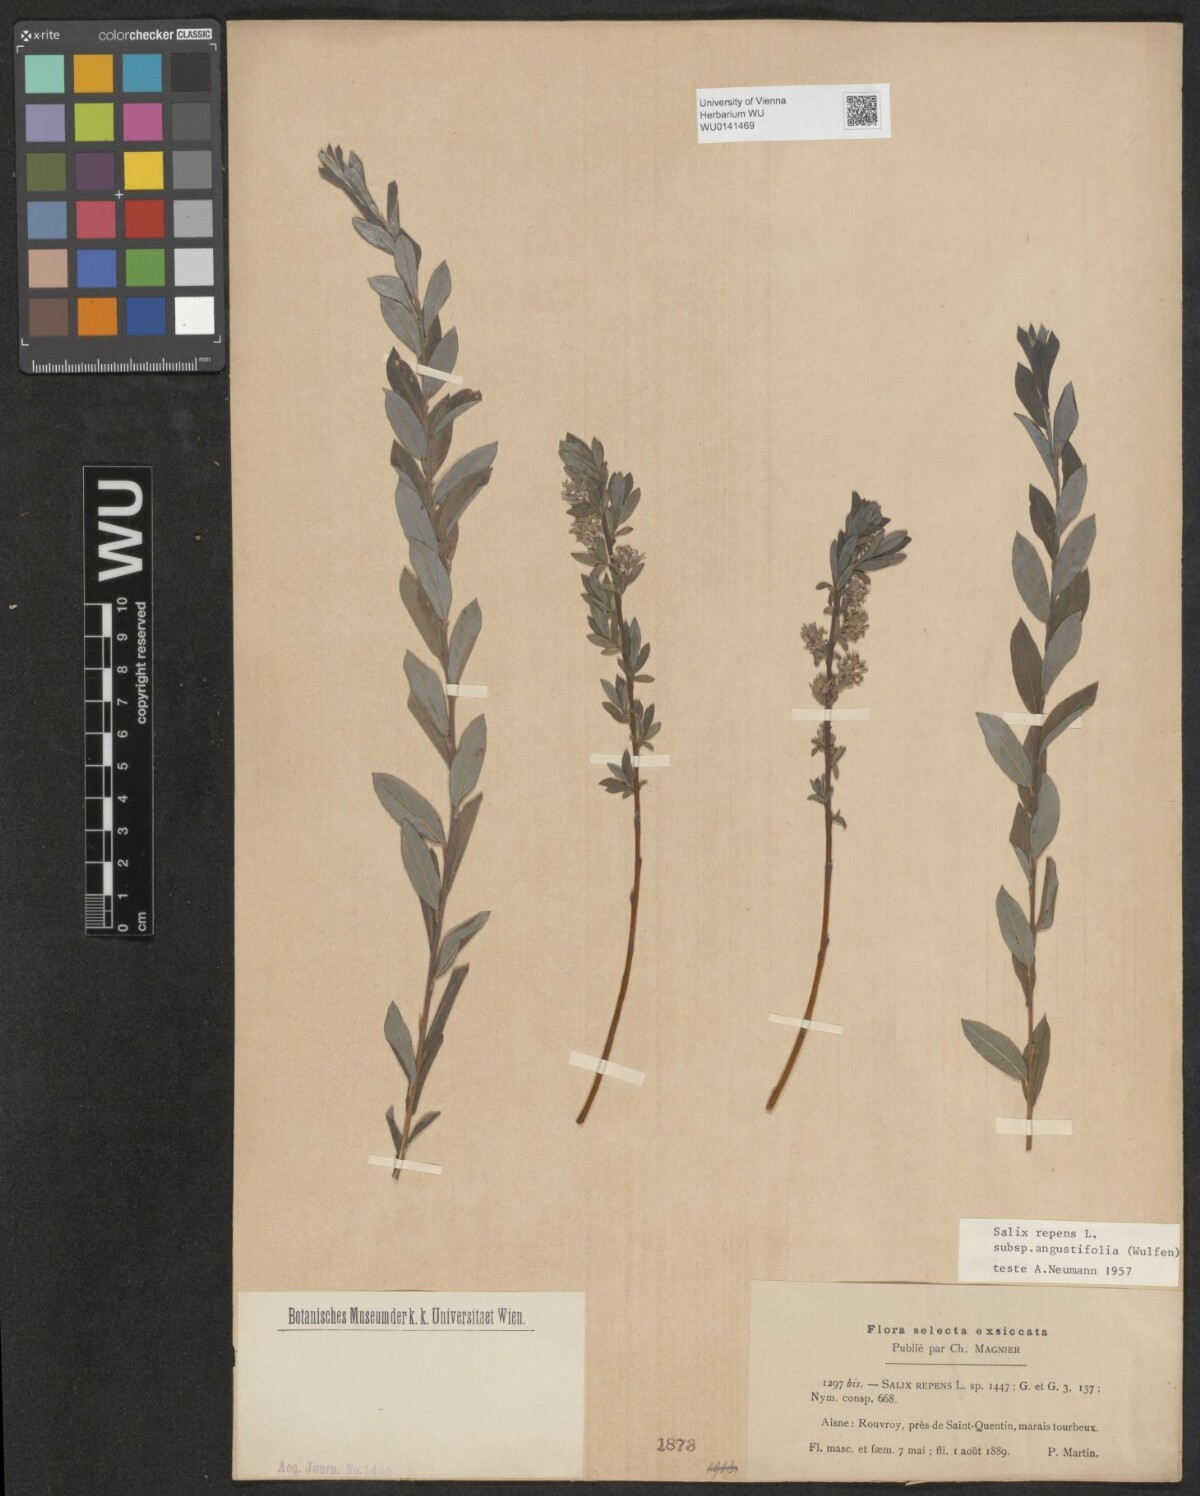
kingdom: Plantae
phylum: Tracheophyta
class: Magnoliopsida
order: Malpighiales
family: Salicaceae
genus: Salix
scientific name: Salix rosmarinifolia
